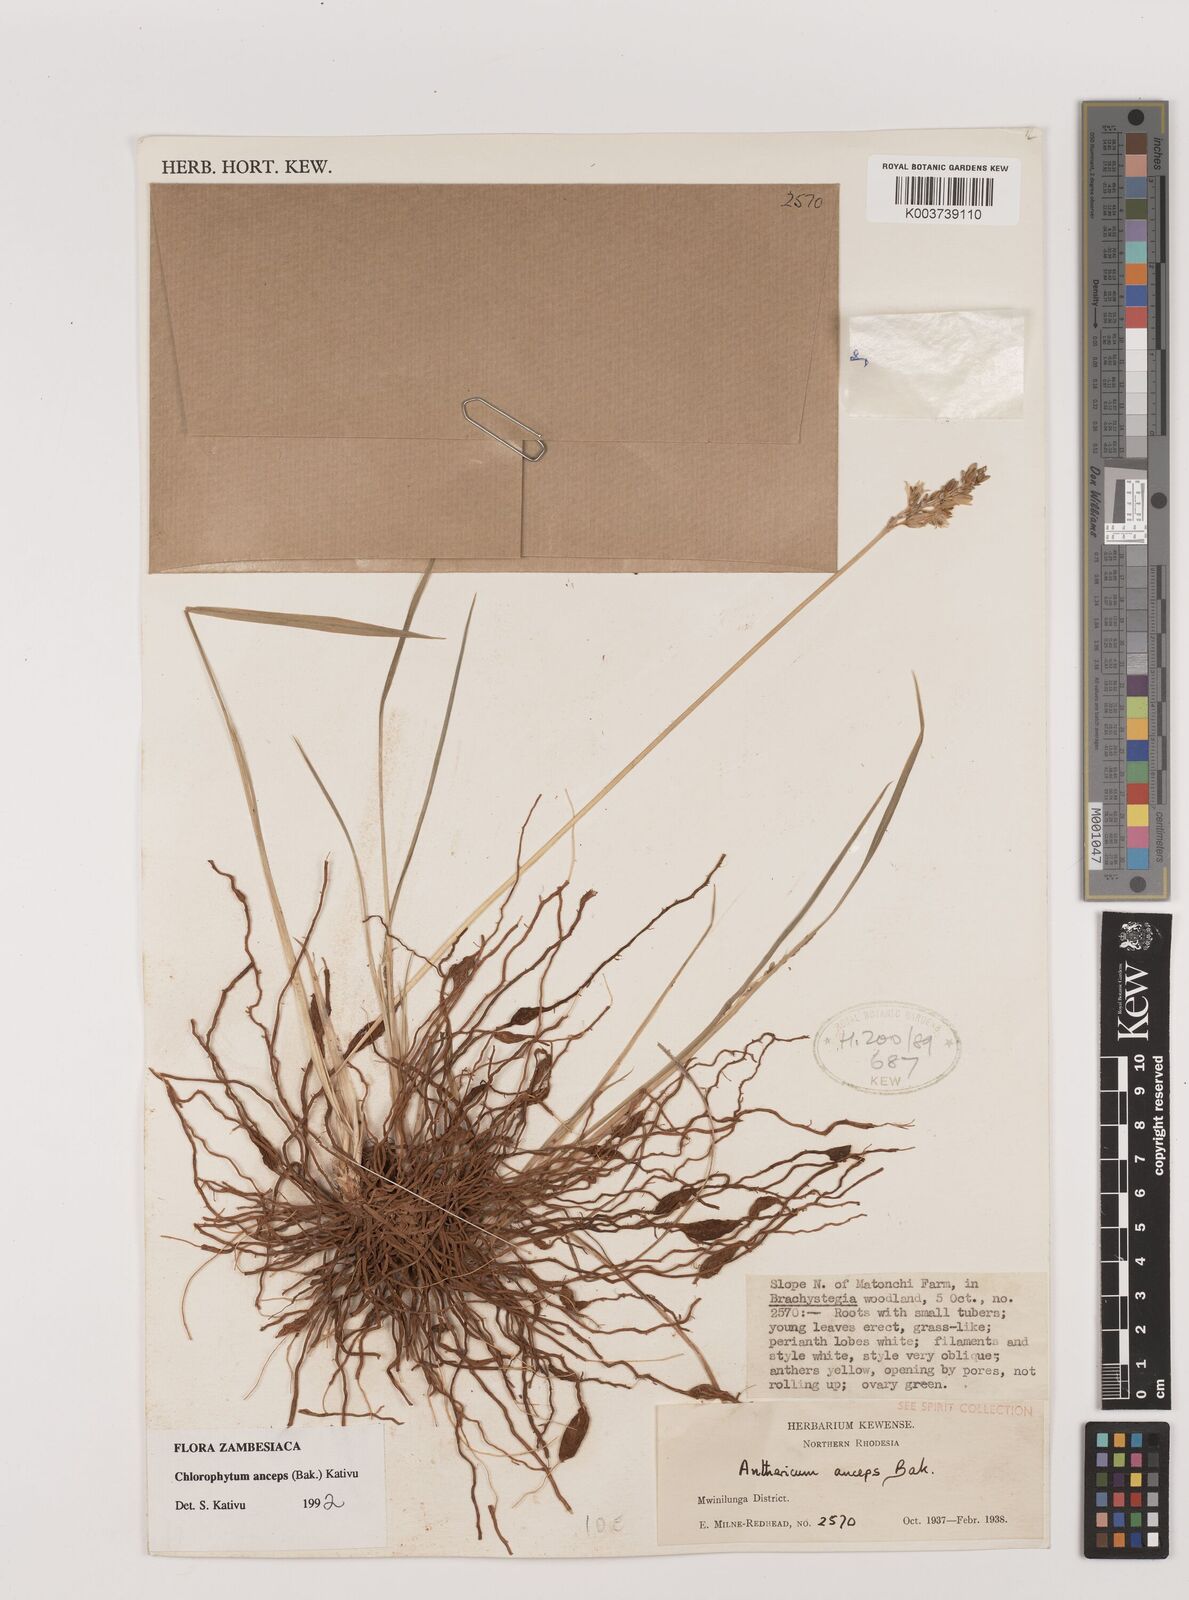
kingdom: Plantae
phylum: Tracheophyta
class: Liliopsida
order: Asparagales
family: Asparagaceae
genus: Chlorophytum
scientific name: Chlorophytum anceps
